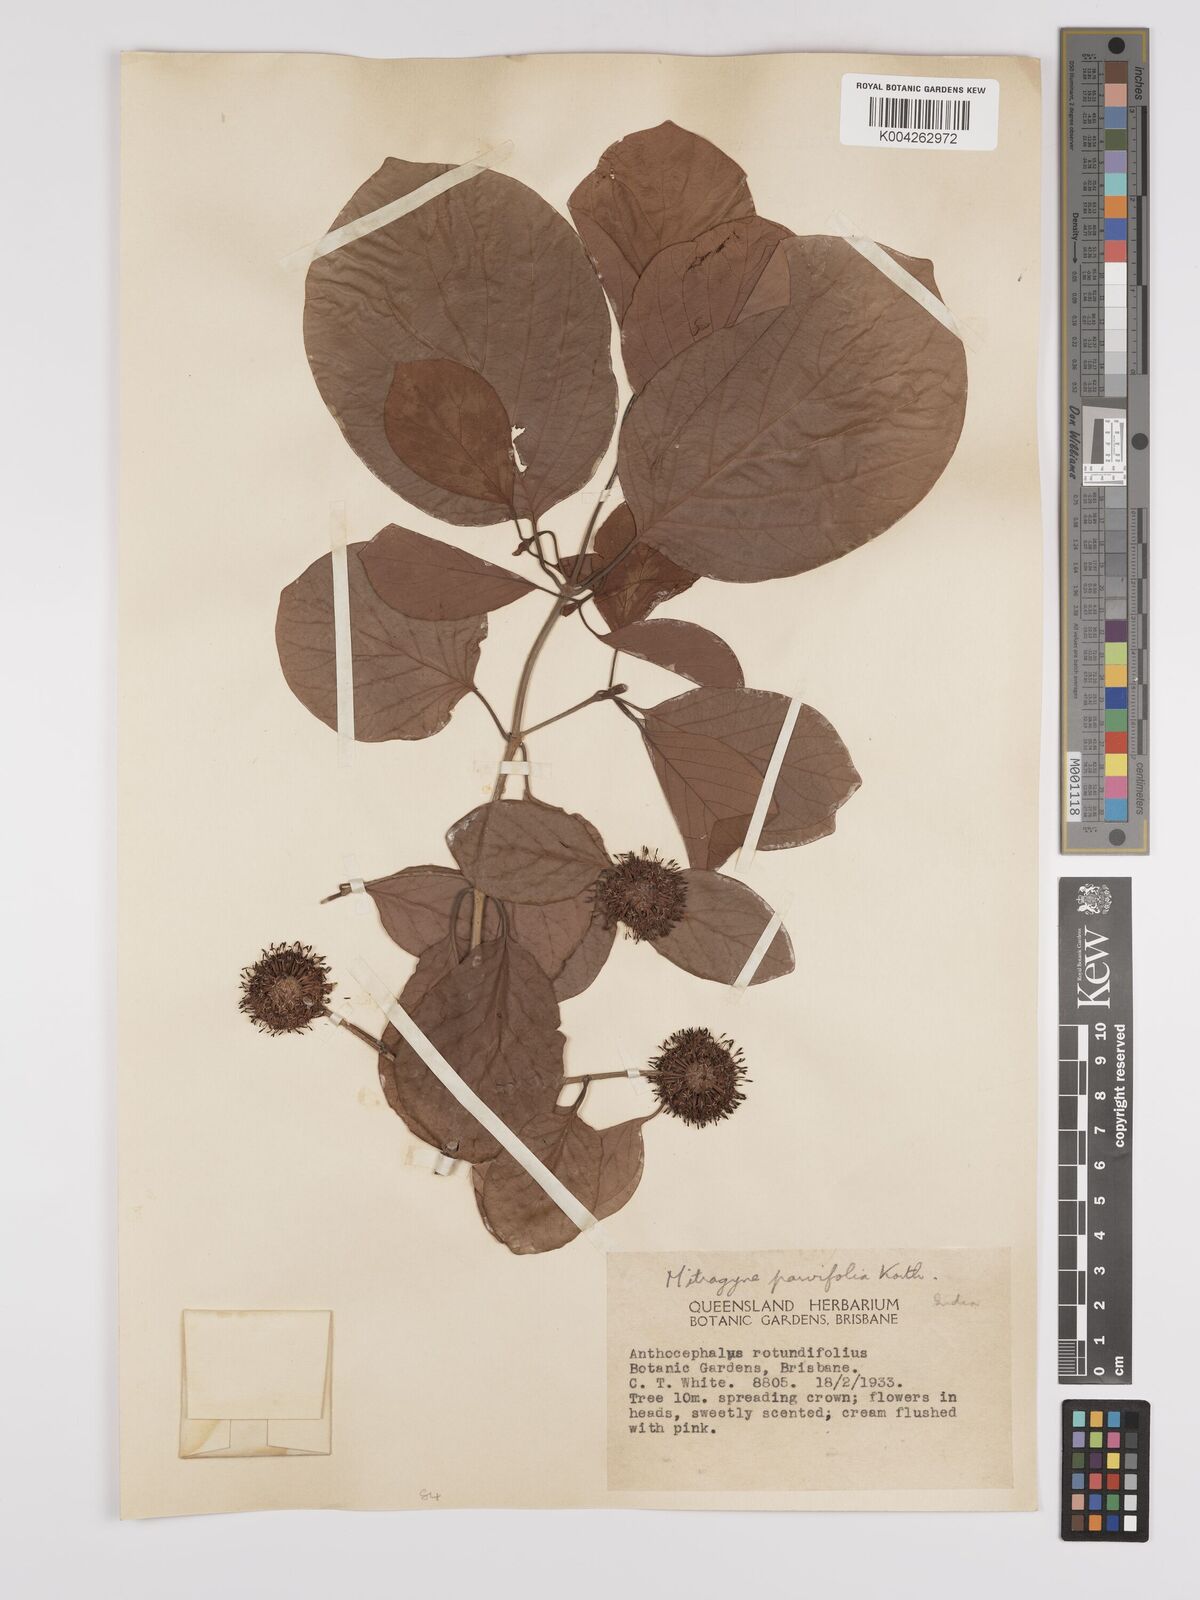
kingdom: Plantae
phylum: Tracheophyta
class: Magnoliopsida
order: Gentianales
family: Rubiaceae
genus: Mitragyna
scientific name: Mitragyna parvifolia
